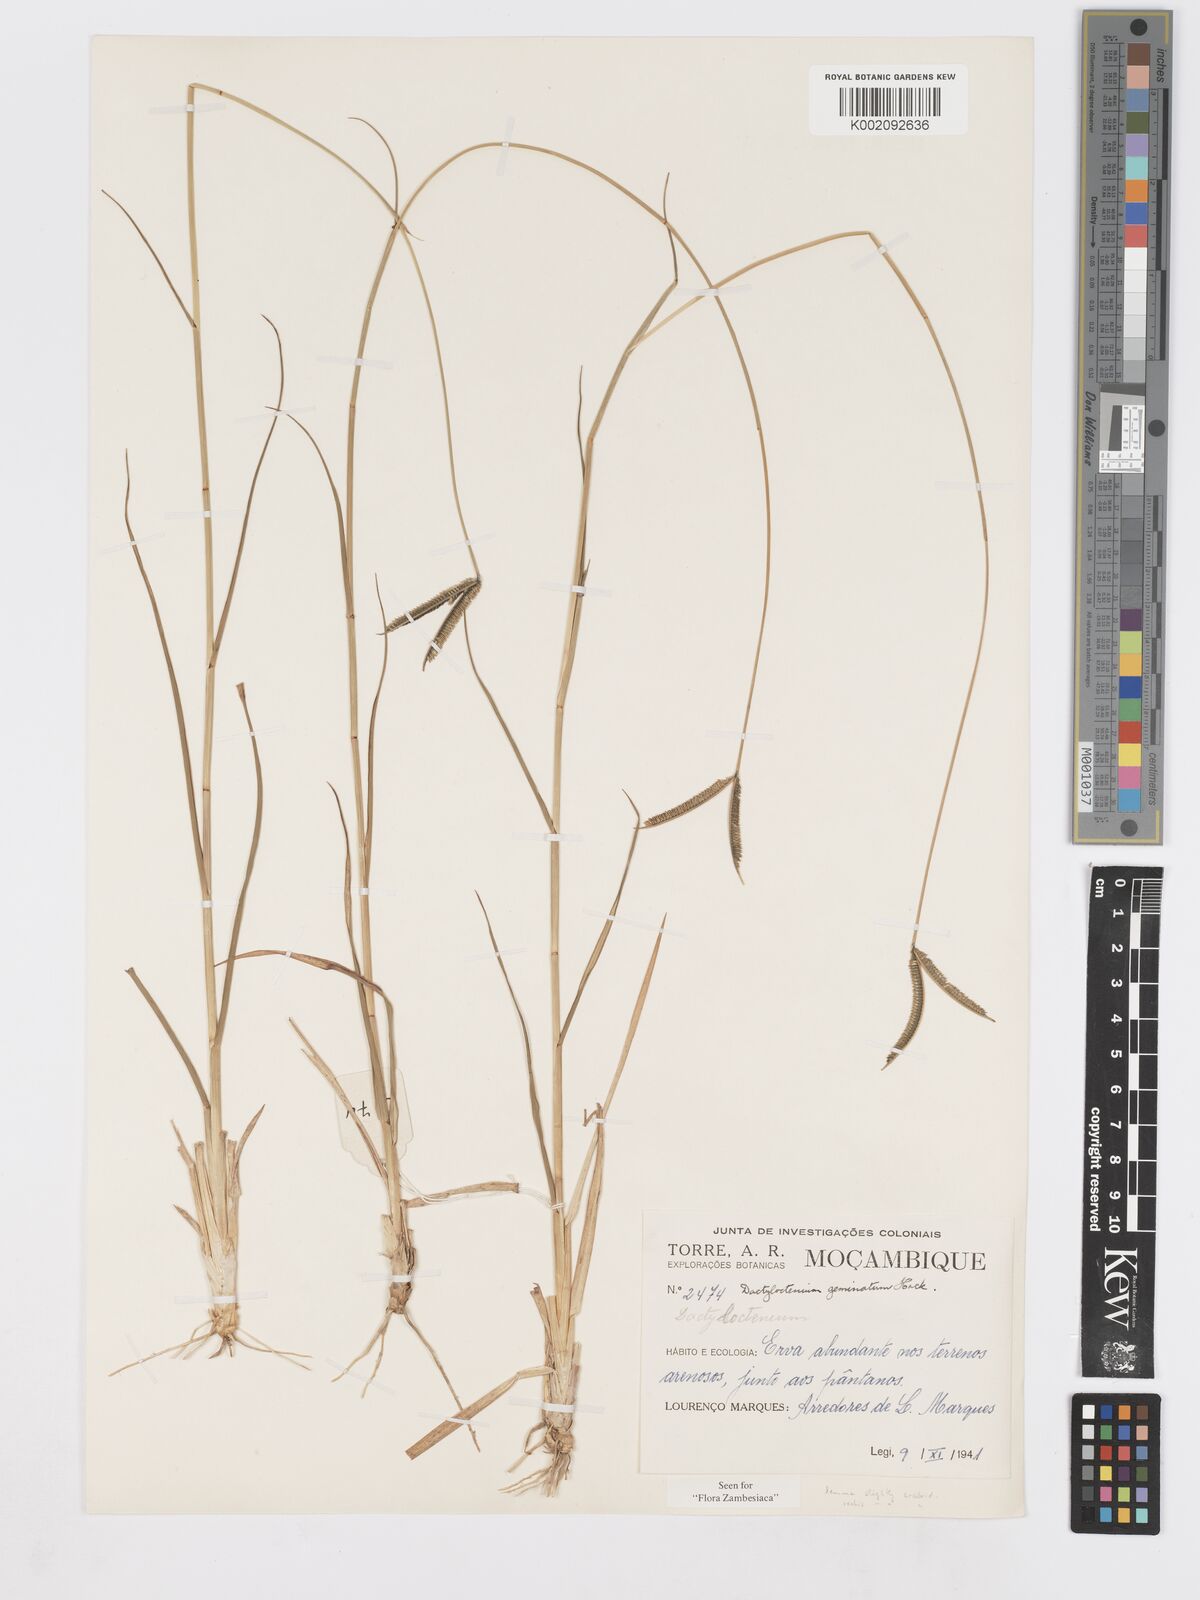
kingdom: Plantae
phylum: Tracheophyta
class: Liliopsida
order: Poales
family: Poaceae
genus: Dactyloctenium
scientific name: Dactyloctenium geminatum
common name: Crowsfoot grass
